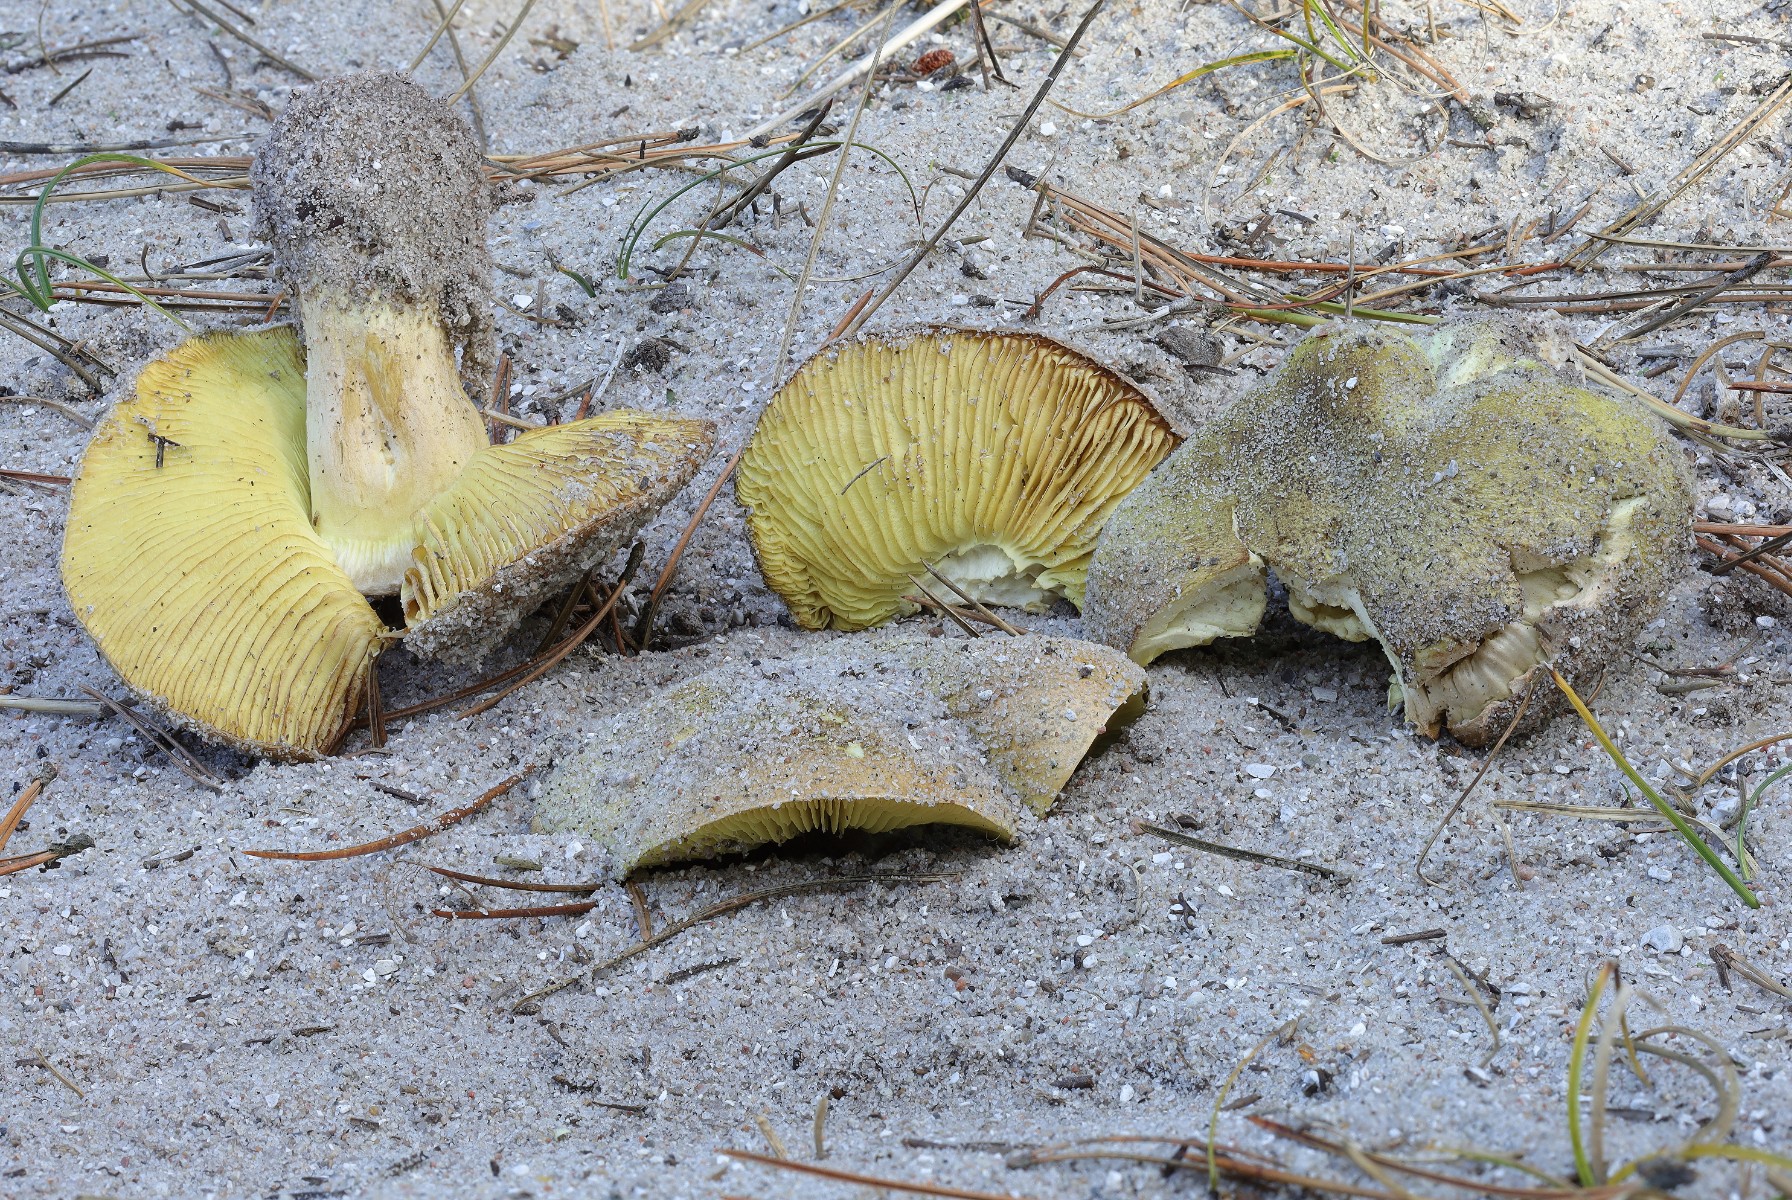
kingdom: Fungi
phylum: Basidiomycota
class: Agaricomycetes
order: Agaricales
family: Tricholomataceae
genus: Tricholoma
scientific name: Tricholoma equestre
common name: ægte ridderhat
